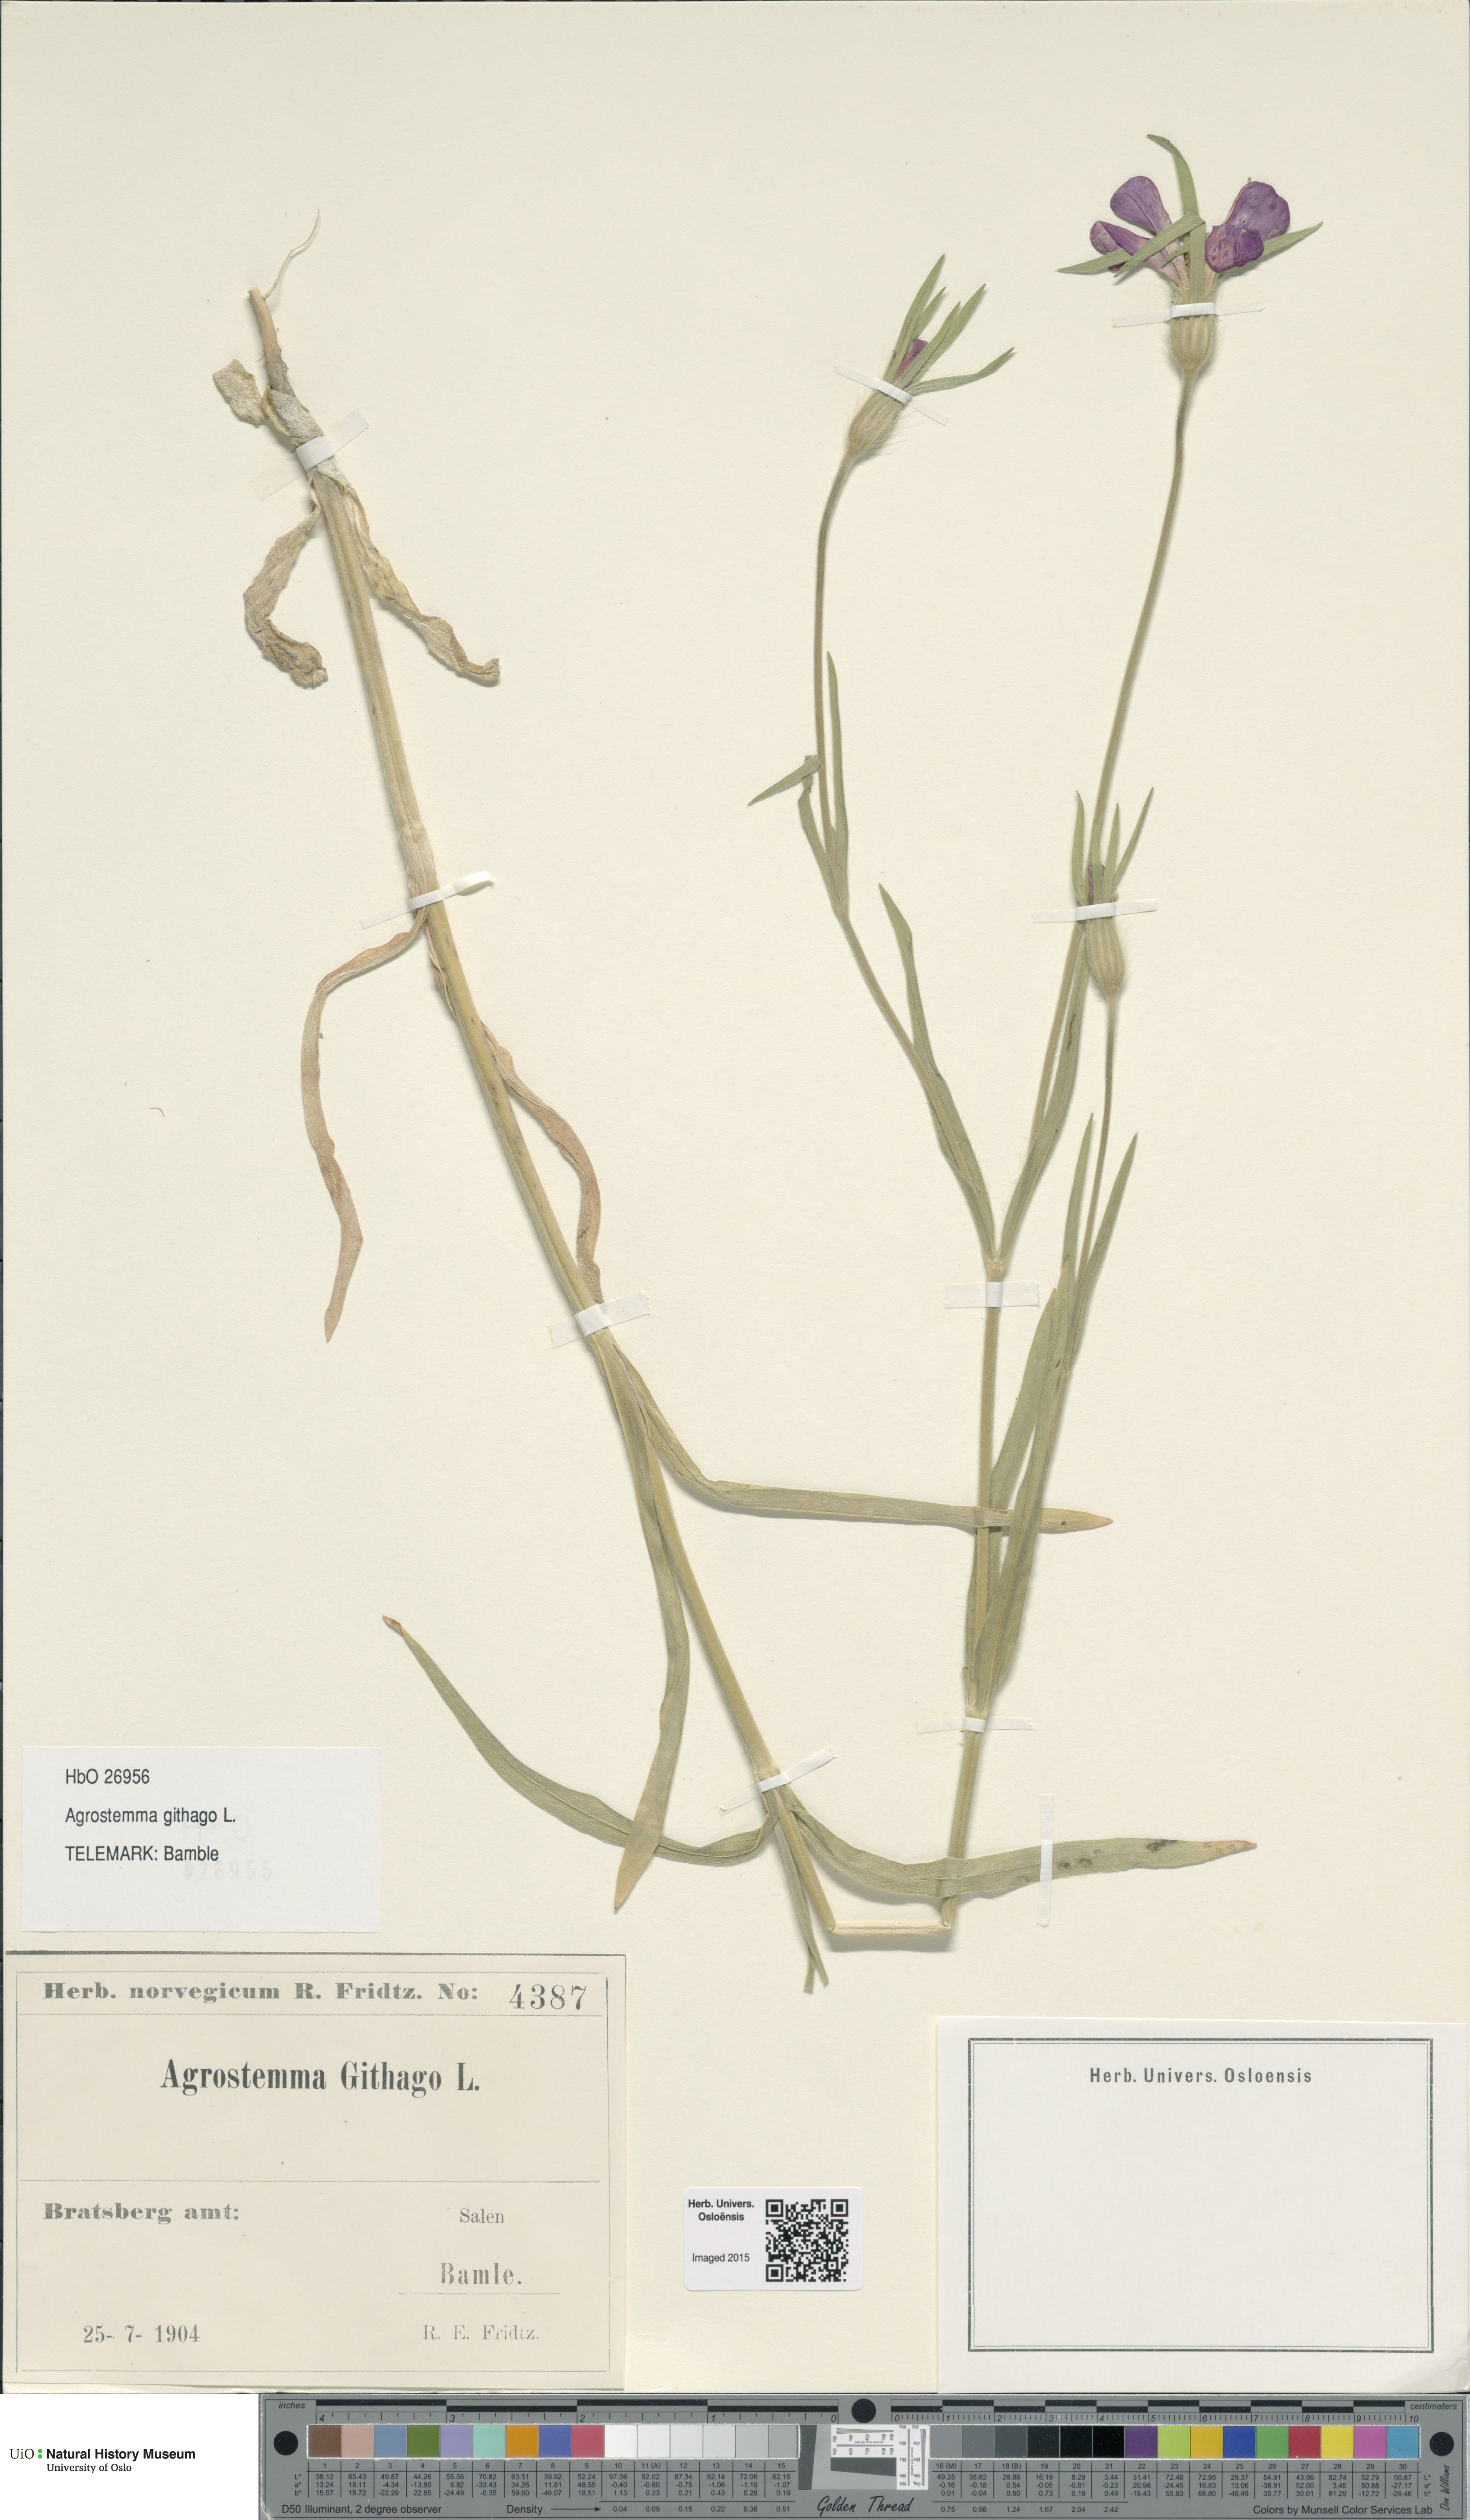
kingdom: Plantae
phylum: Tracheophyta
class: Magnoliopsida
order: Caryophyllales
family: Caryophyllaceae
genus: Agrostemma
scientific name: Agrostemma githago
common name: Common corncockle
